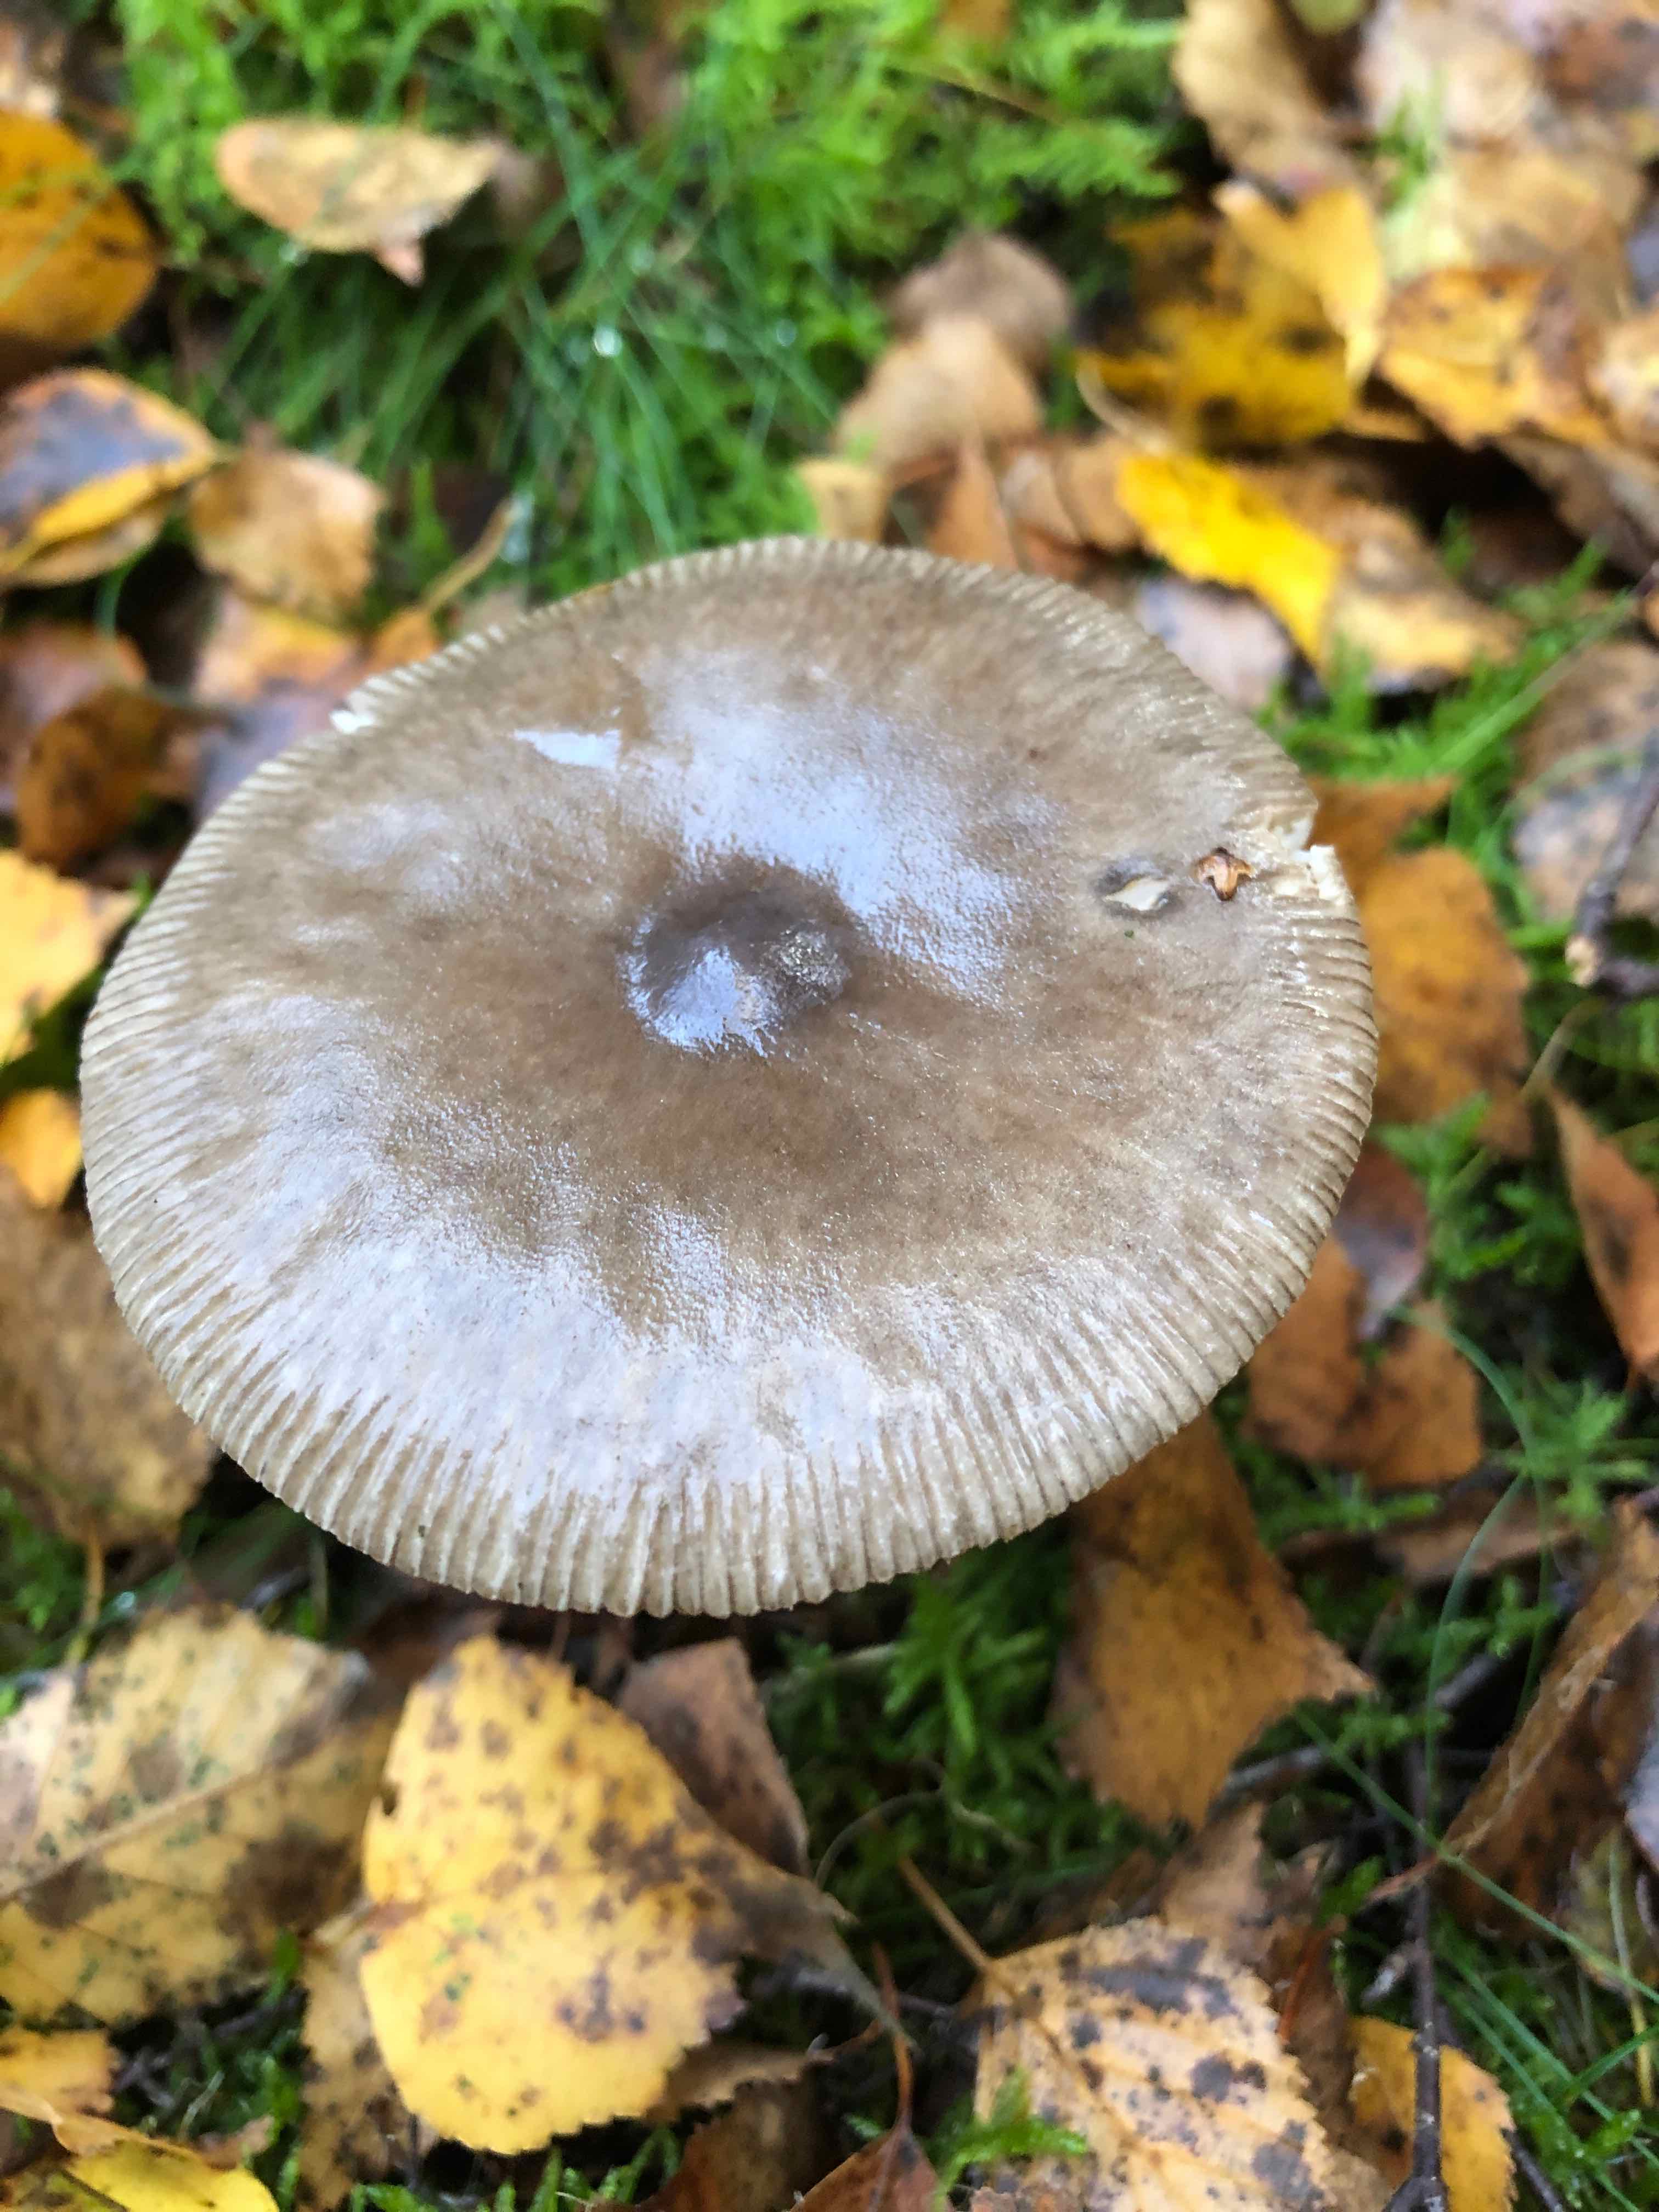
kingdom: Fungi
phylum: Basidiomycota
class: Agaricomycetes
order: Agaricales
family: Amanitaceae
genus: Amanita
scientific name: Amanita
